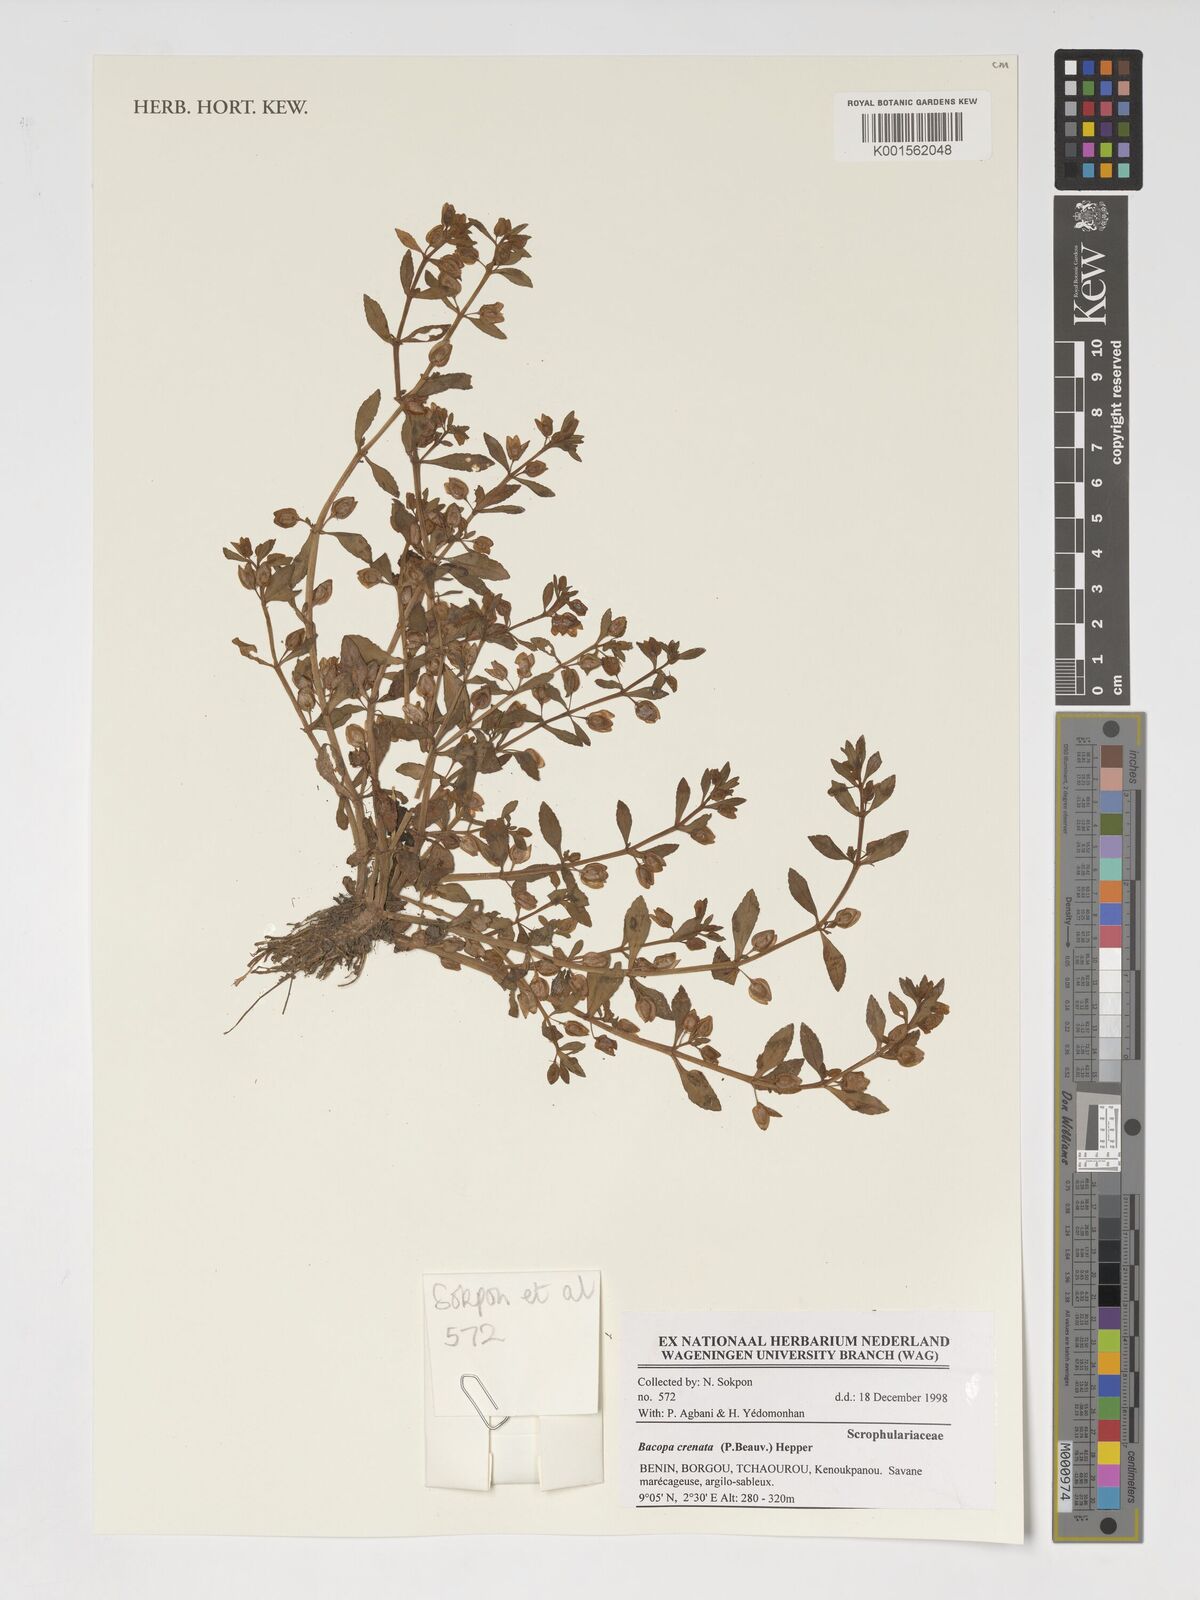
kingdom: Plantae
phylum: Tracheophyta
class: Magnoliopsida
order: Lamiales
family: Plantaginaceae
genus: Bacopa
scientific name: Bacopa crenata
